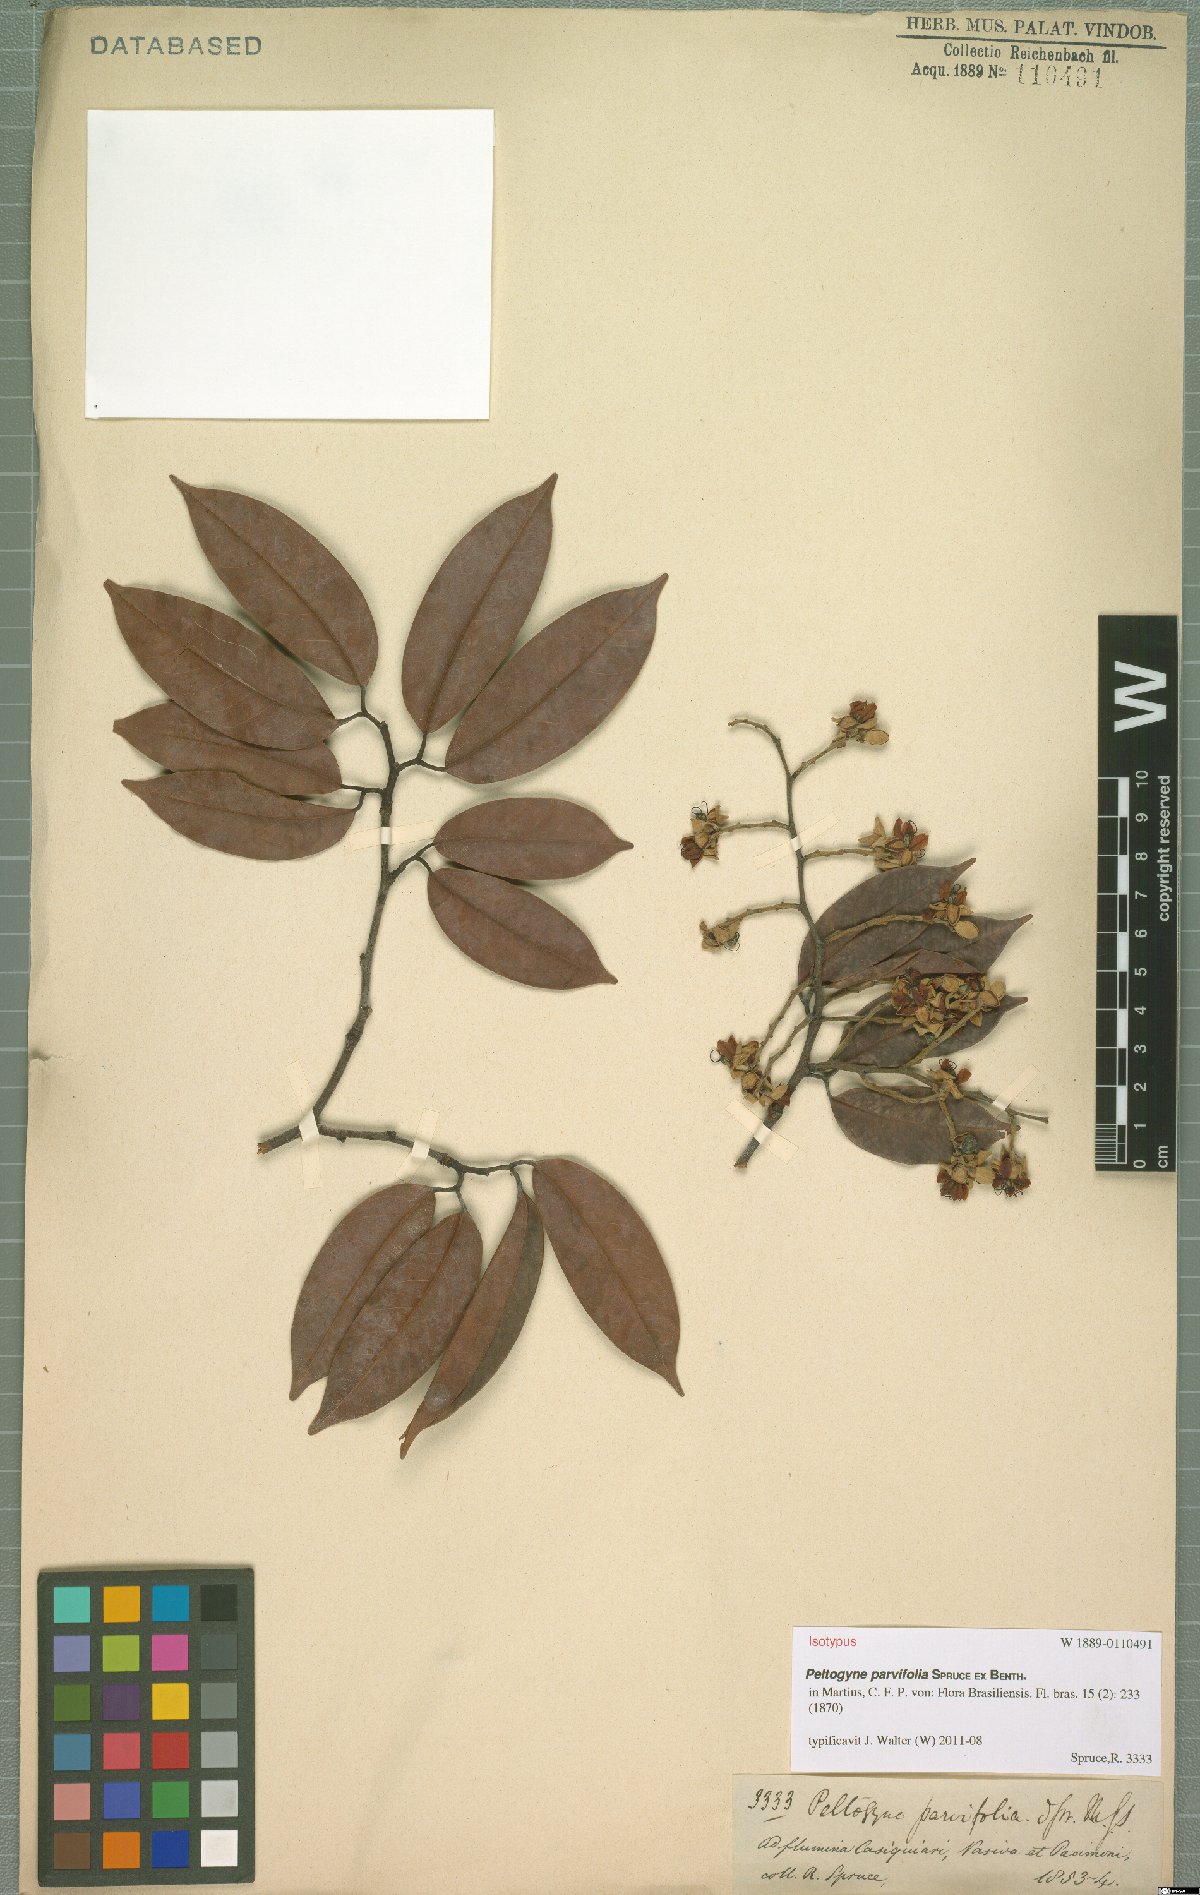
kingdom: Plantae
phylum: Tracheophyta
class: Magnoliopsida
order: Fabales
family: Fabaceae
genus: Peltogyne
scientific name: Peltogyne parvifolia
